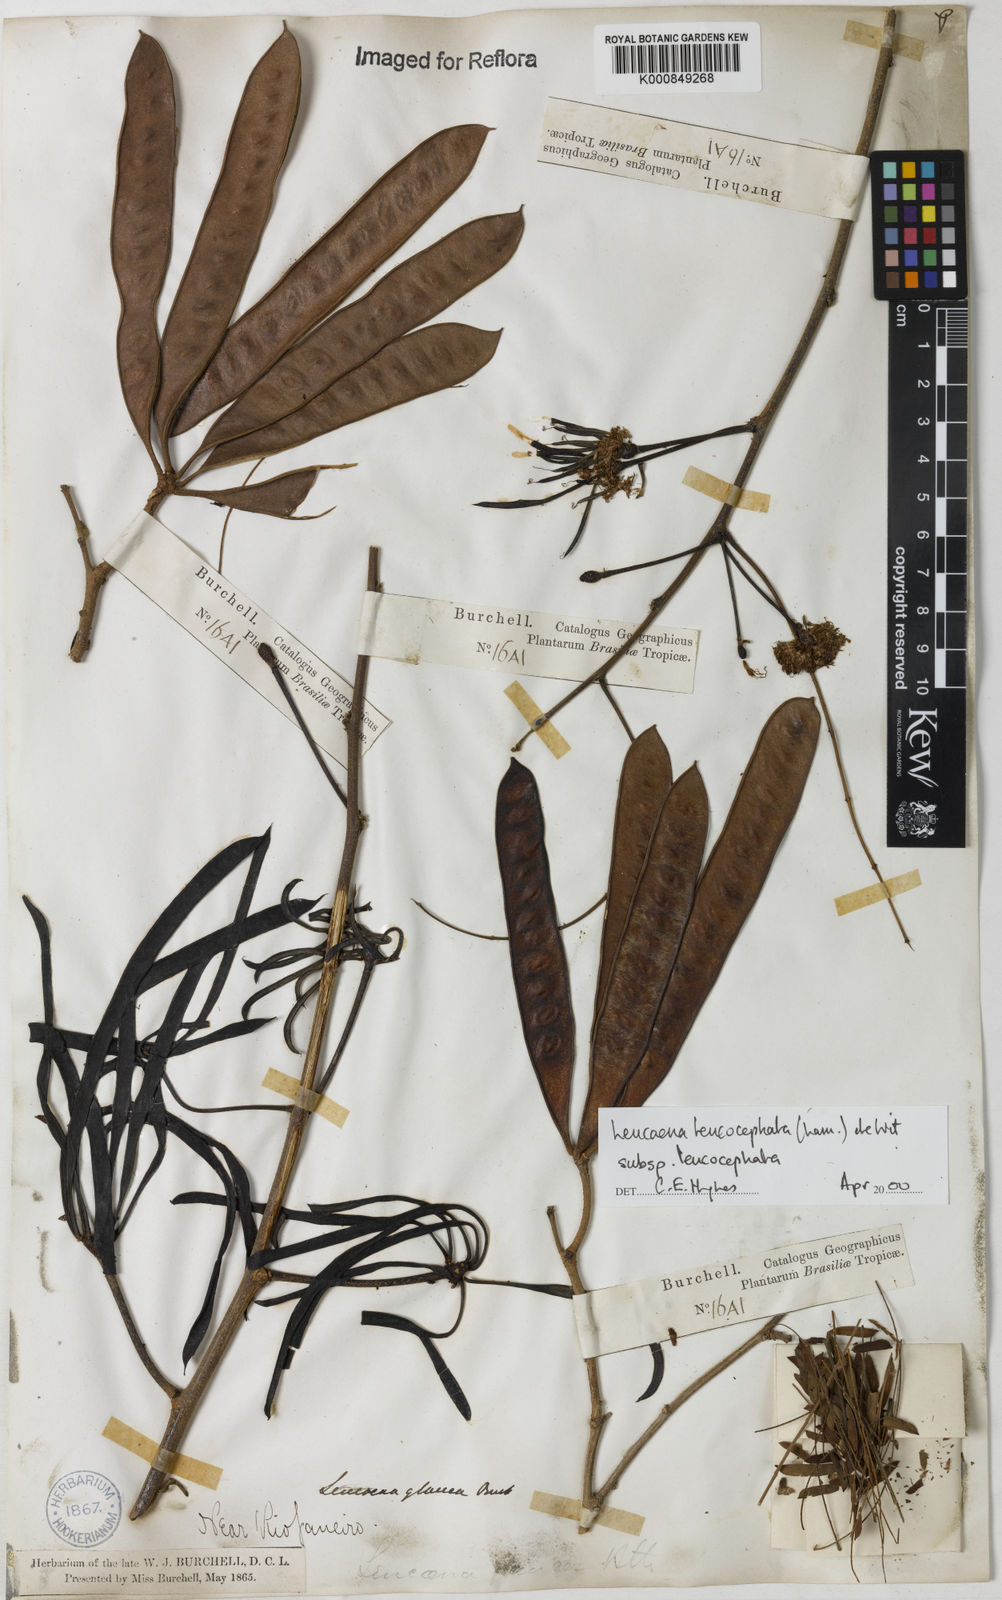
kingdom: Plantae
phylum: Tracheophyta
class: Magnoliopsida
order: Fabales
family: Fabaceae
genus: Leucaena
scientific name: Leucaena leucocephala
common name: White leadtree
